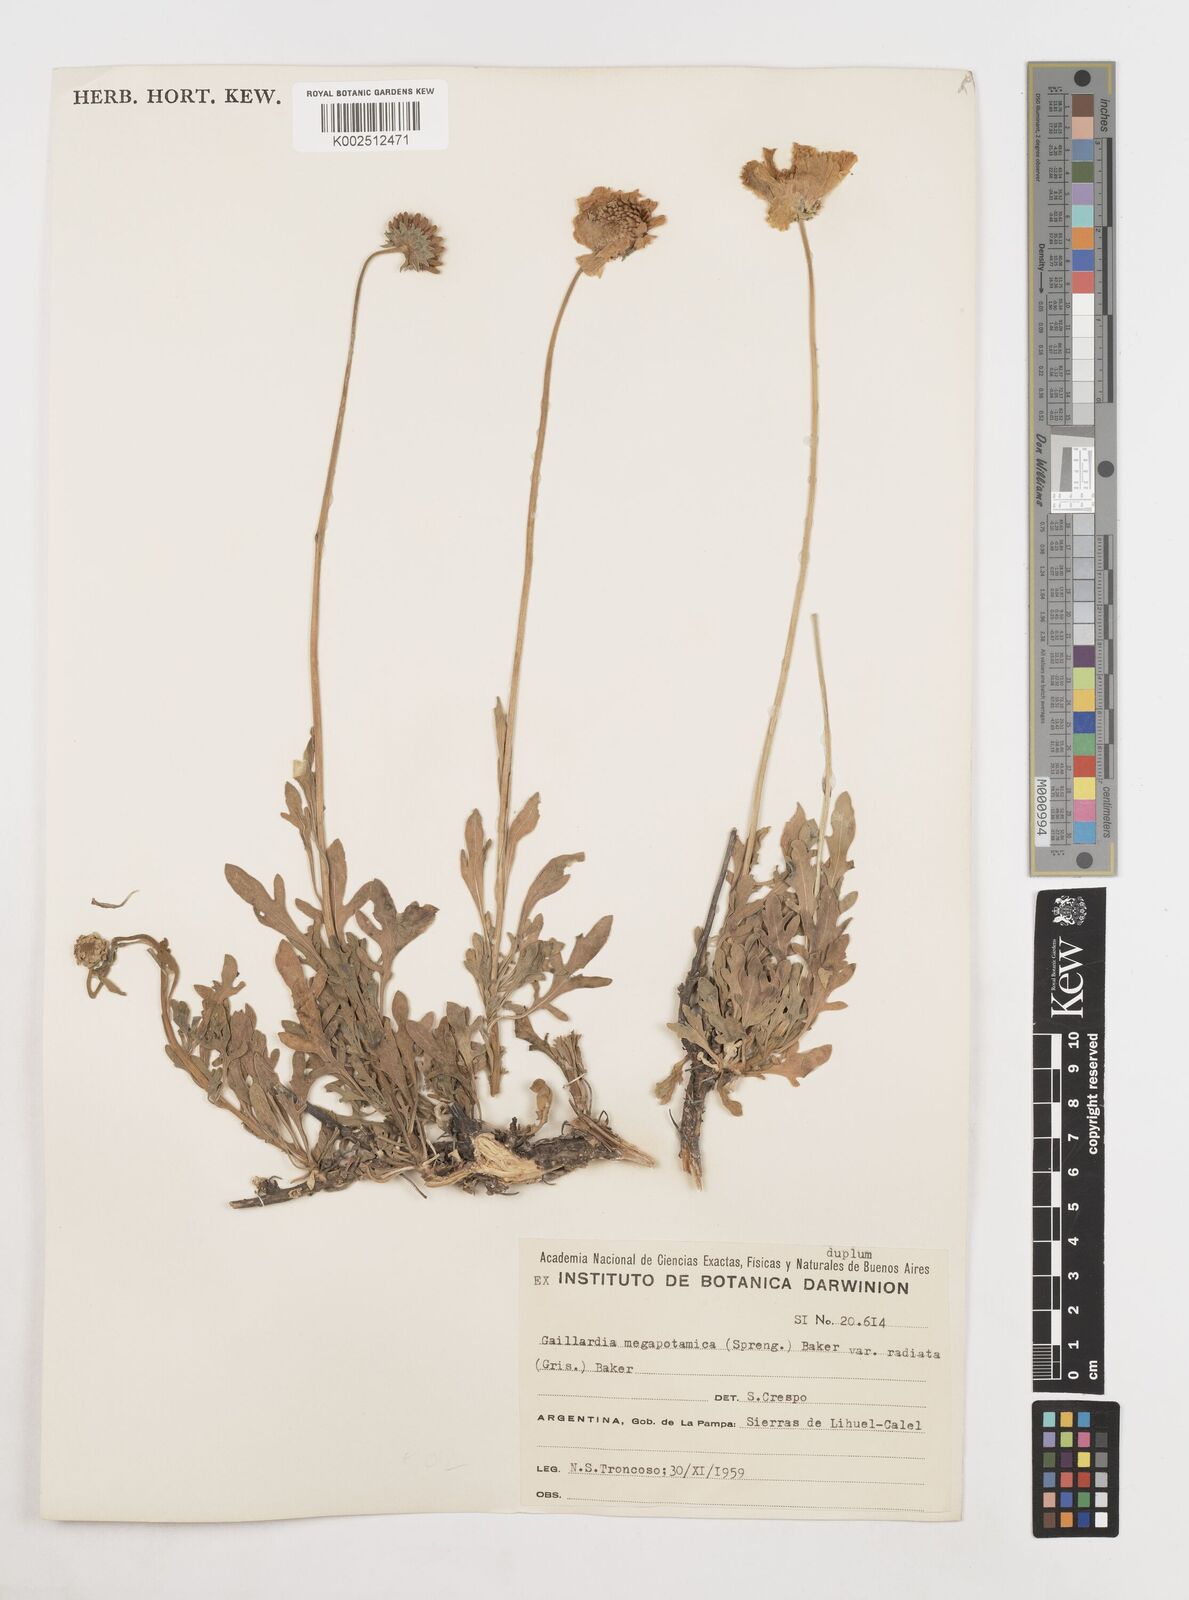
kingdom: Plantae
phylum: Tracheophyta
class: Magnoliopsida
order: Asterales
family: Asteraceae
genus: Gaillardia
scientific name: Gaillardia megapotamica
